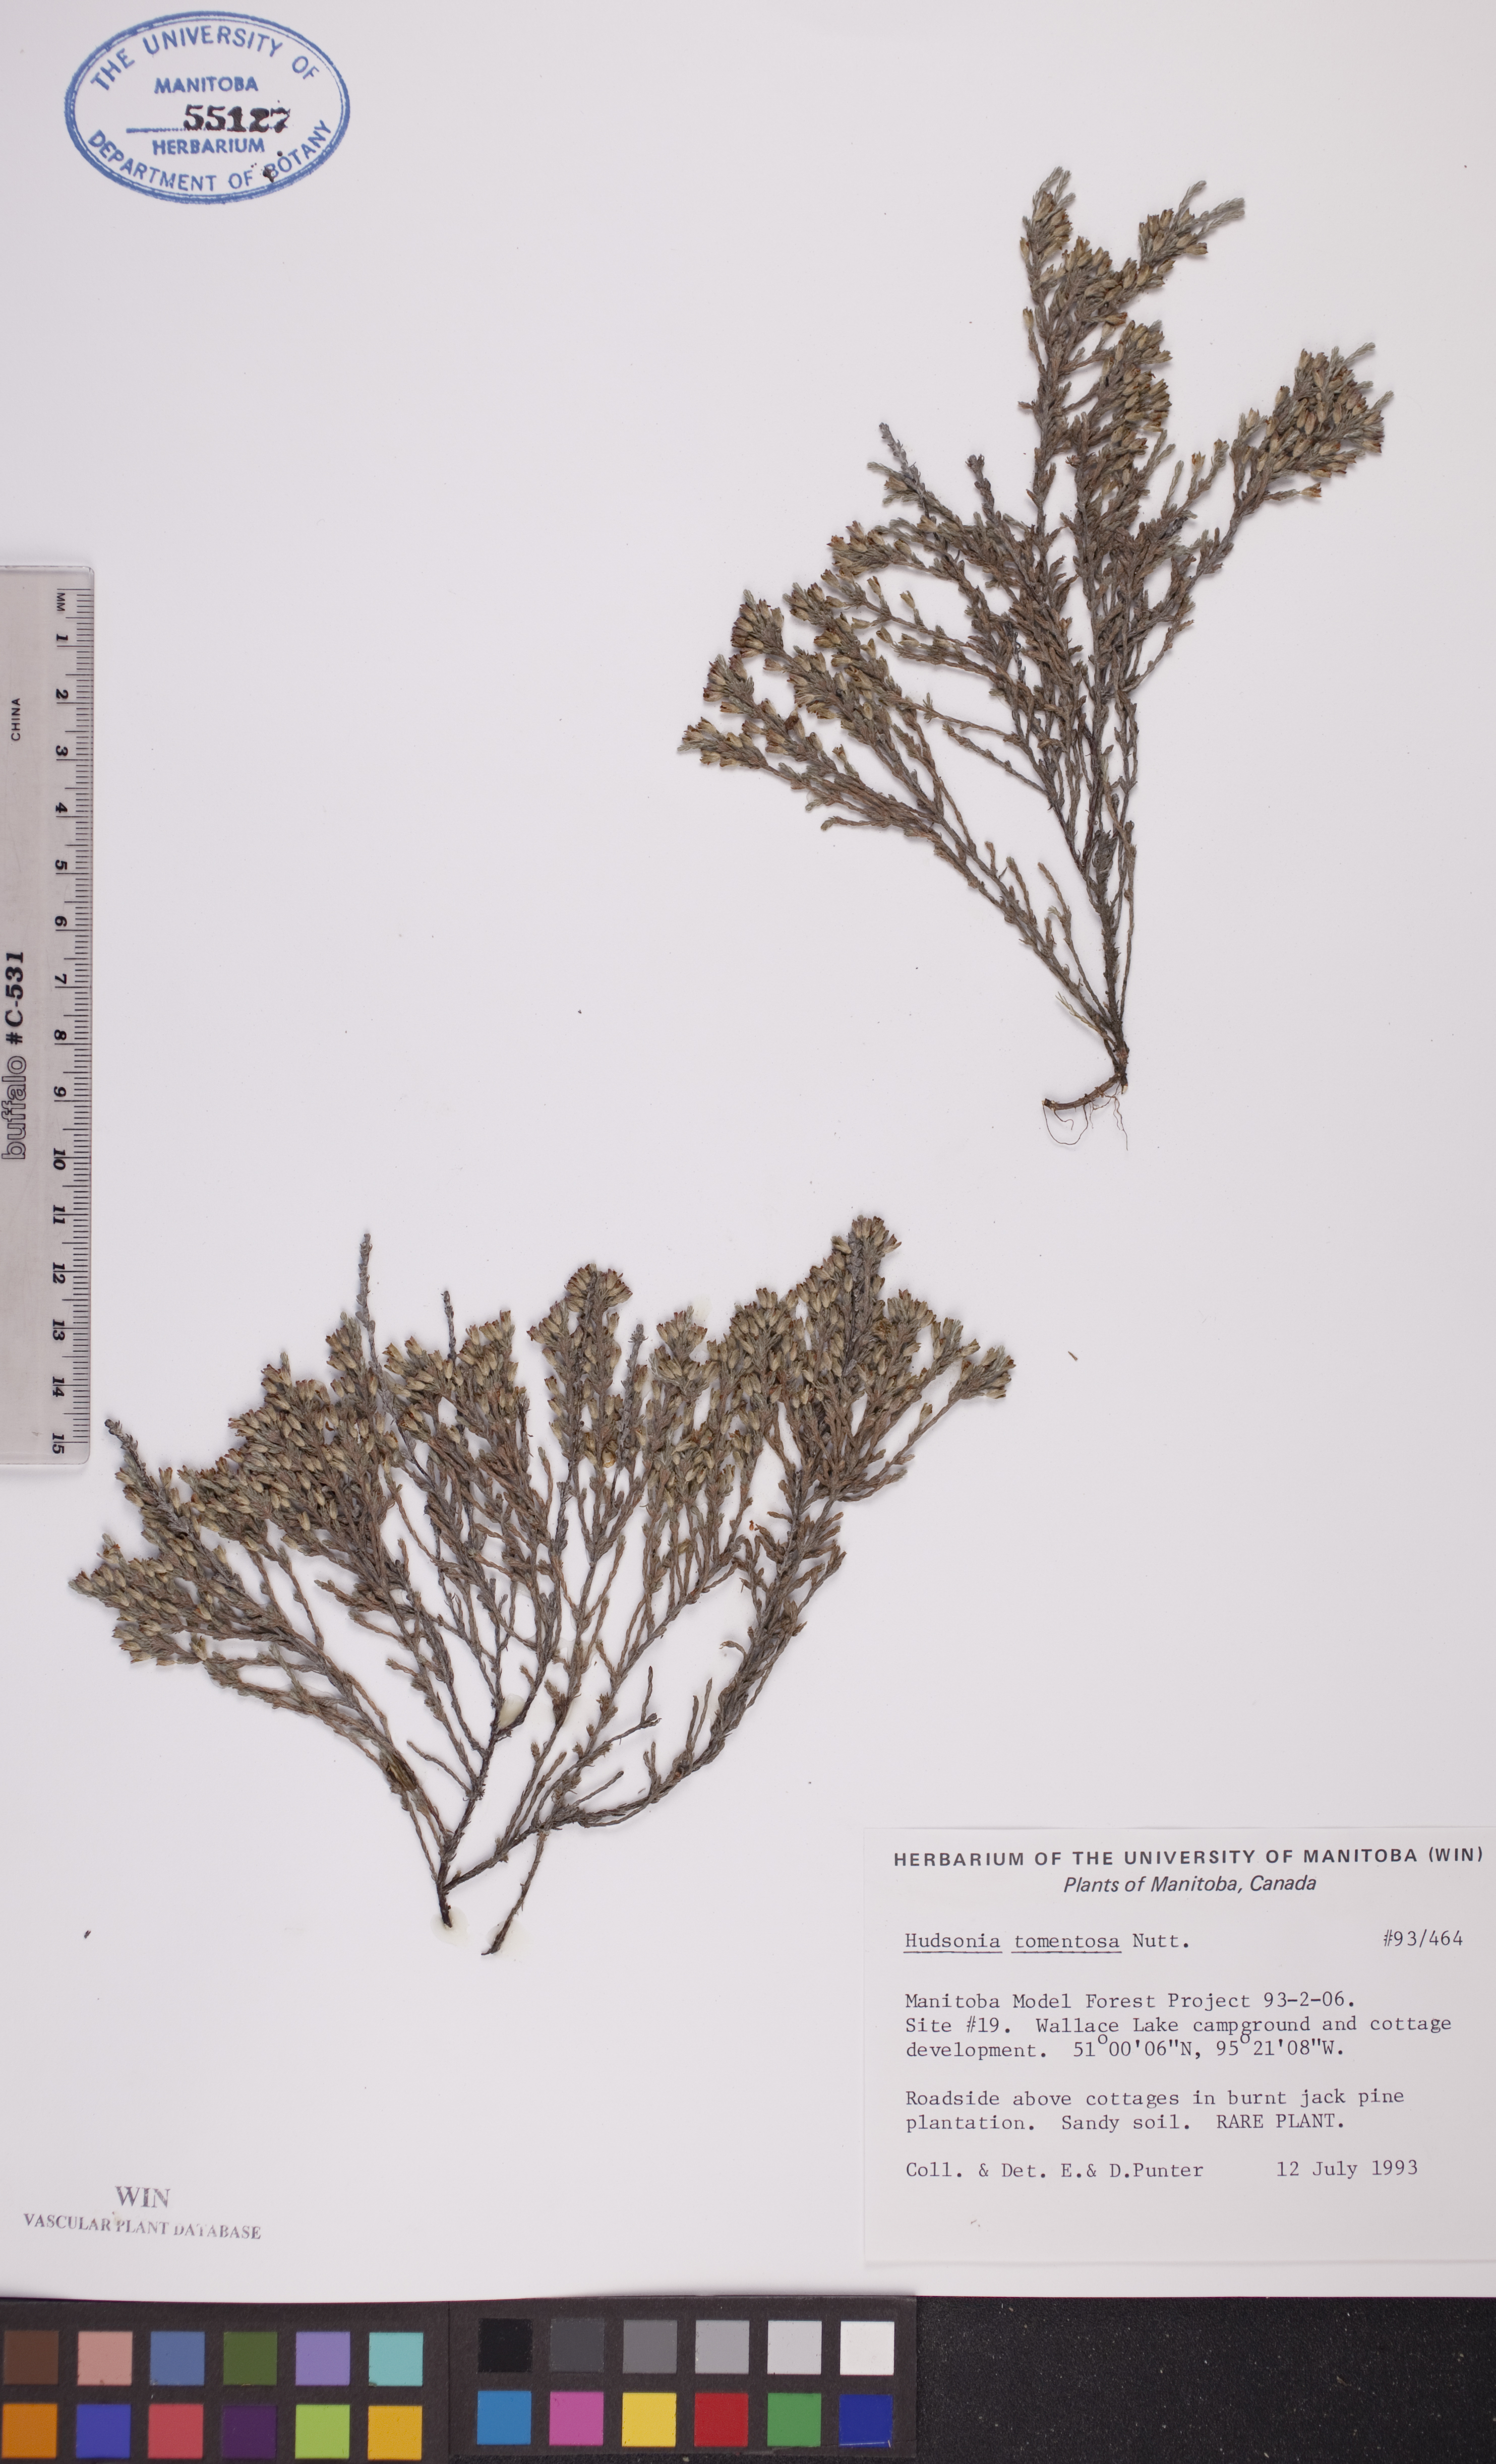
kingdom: Plantae
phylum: Tracheophyta
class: Magnoliopsida
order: Malvales
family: Cistaceae
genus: Hudsonia
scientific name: Hudsonia tomentosa
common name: Beach-heath
